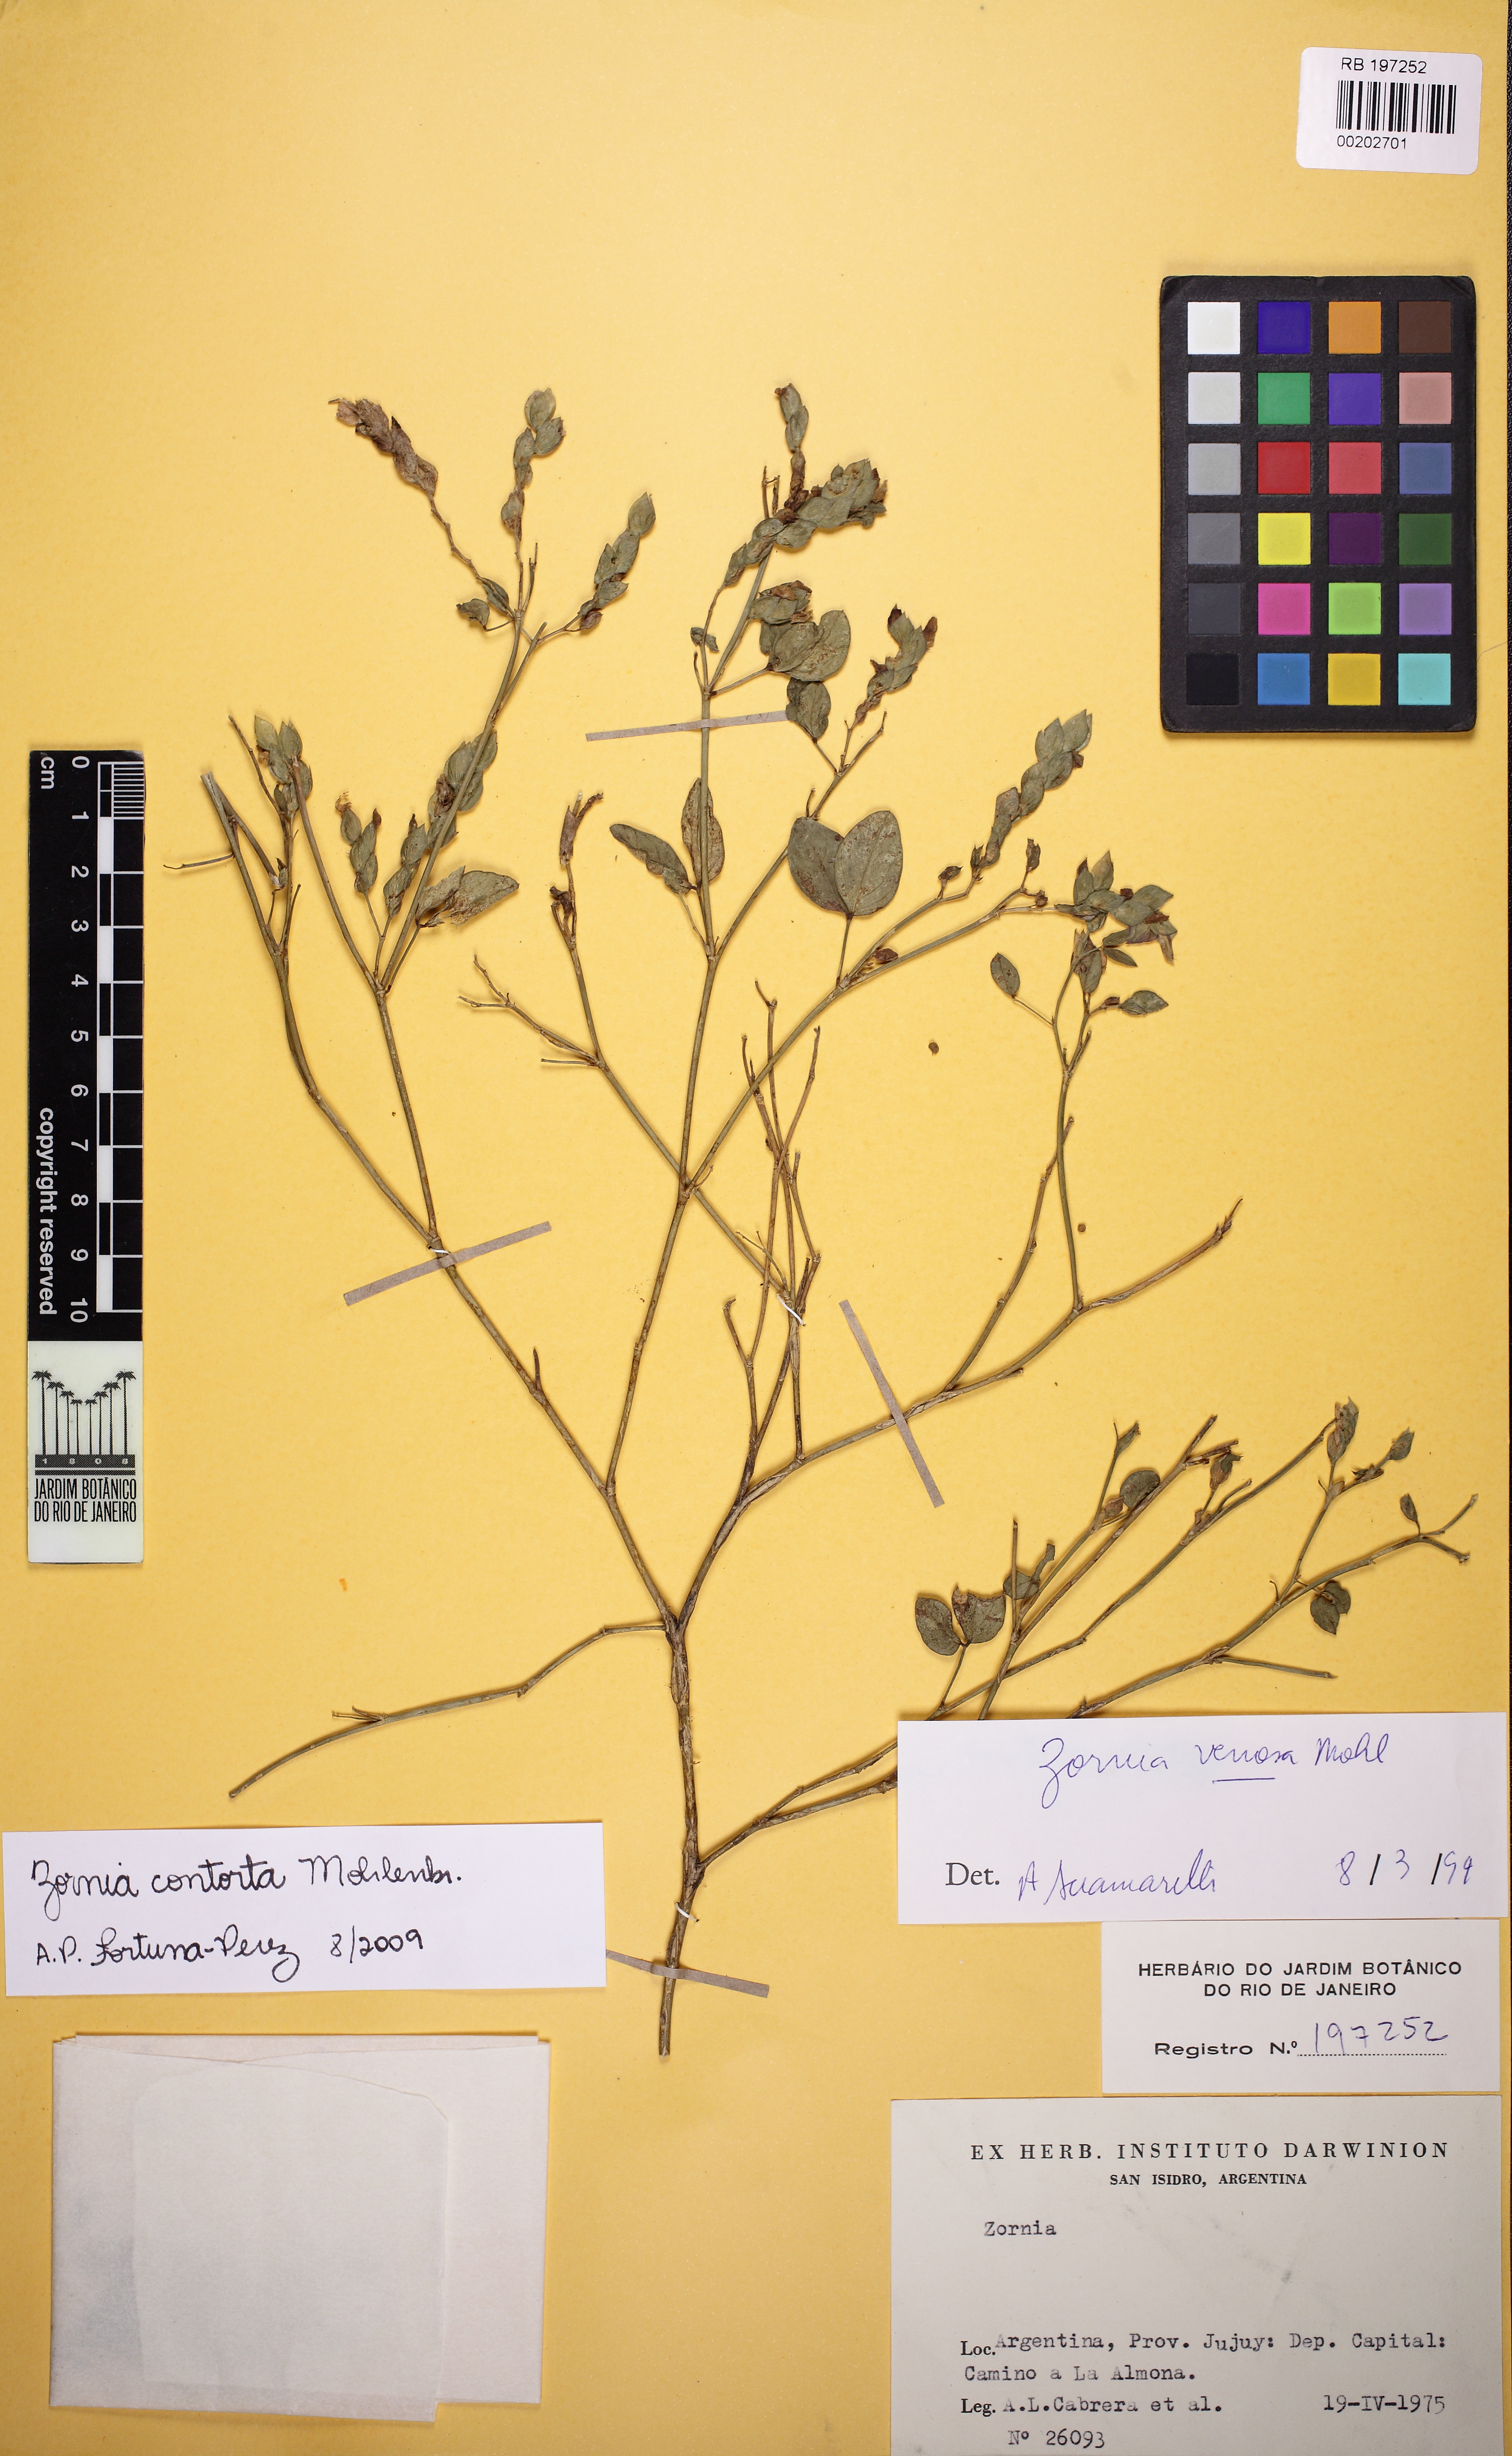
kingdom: Plantae
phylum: Tracheophyta
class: Magnoliopsida
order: Fabales
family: Fabaceae
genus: Zornia
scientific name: Zornia contorta
